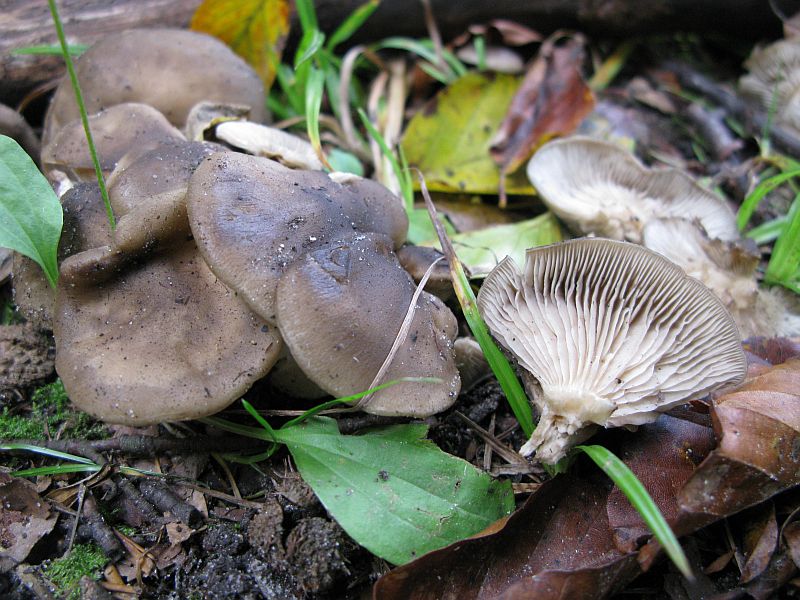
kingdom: Fungi
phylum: Basidiomycota
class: Agaricomycetes
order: Agaricales
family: Lyophyllaceae
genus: Lyophyllum
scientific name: Lyophyllum decastes
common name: røggrå gråblad
